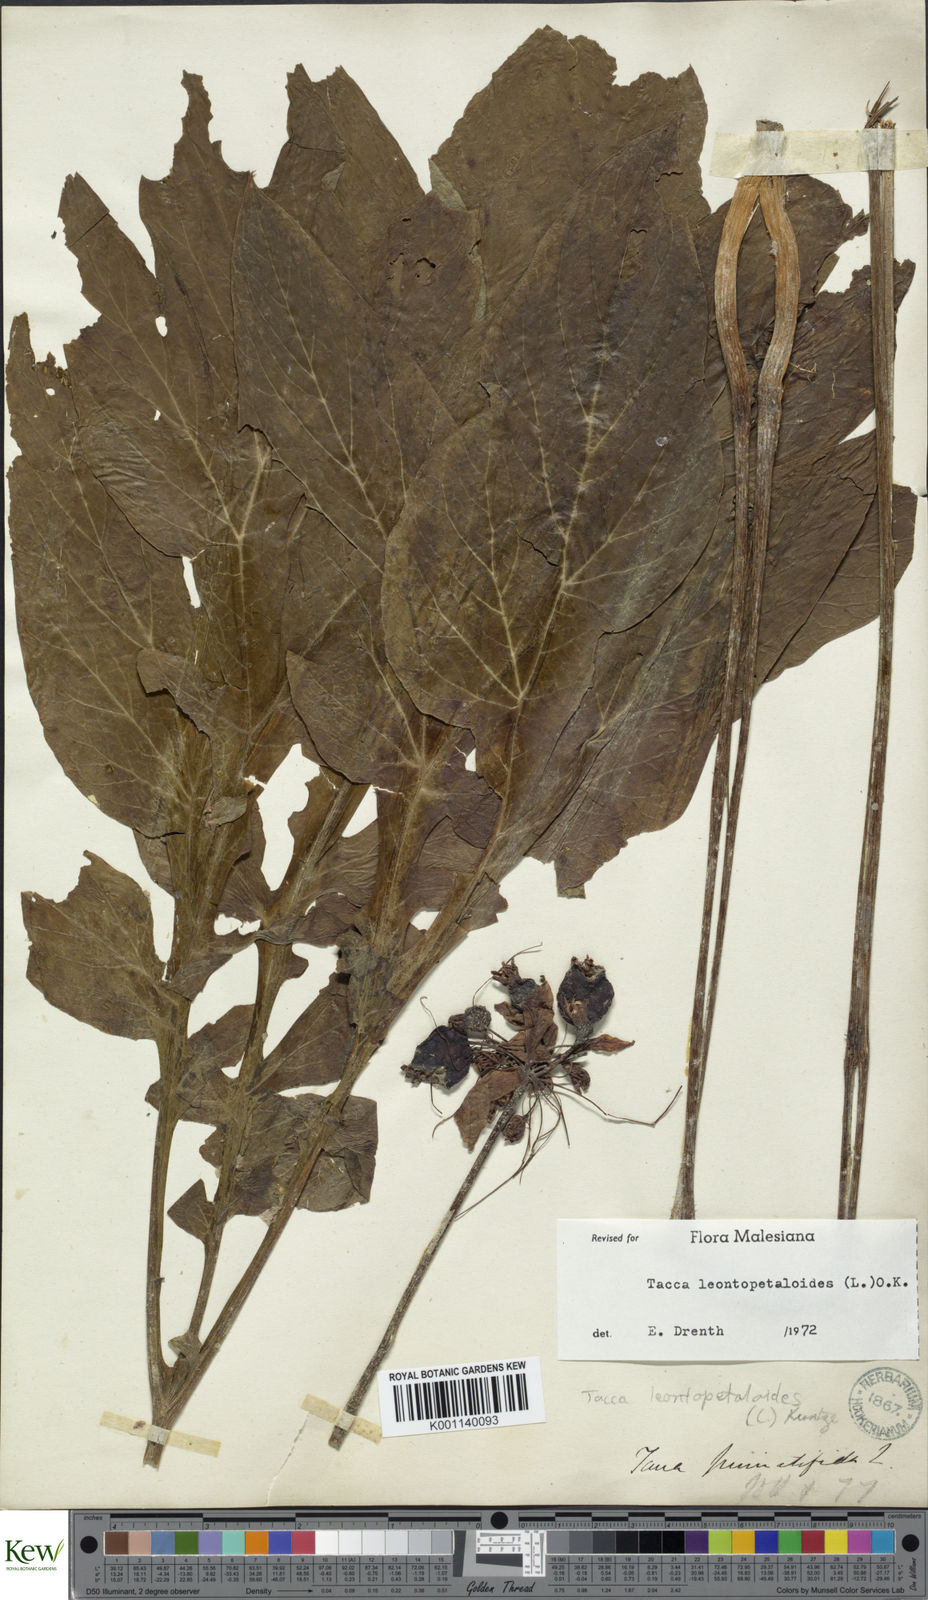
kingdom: Plantae
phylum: Tracheophyta
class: Liliopsida
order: Dioscoreales
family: Dioscoreaceae
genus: Tacca
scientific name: Tacca leontopetaloides
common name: Arrowroot
